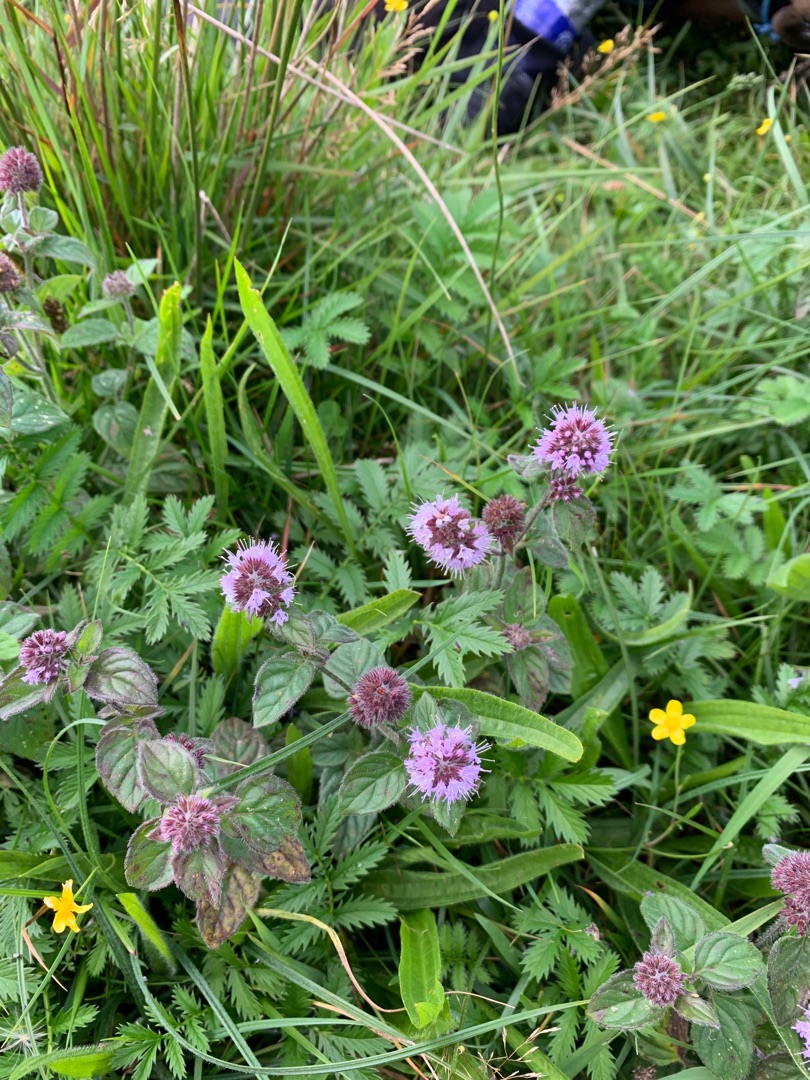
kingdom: Plantae
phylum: Tracheophyta
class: Magnoliopsida
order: Lamiales
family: Lamiaceae
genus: Mentha
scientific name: Mentha aquatica
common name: Vand-mynte
